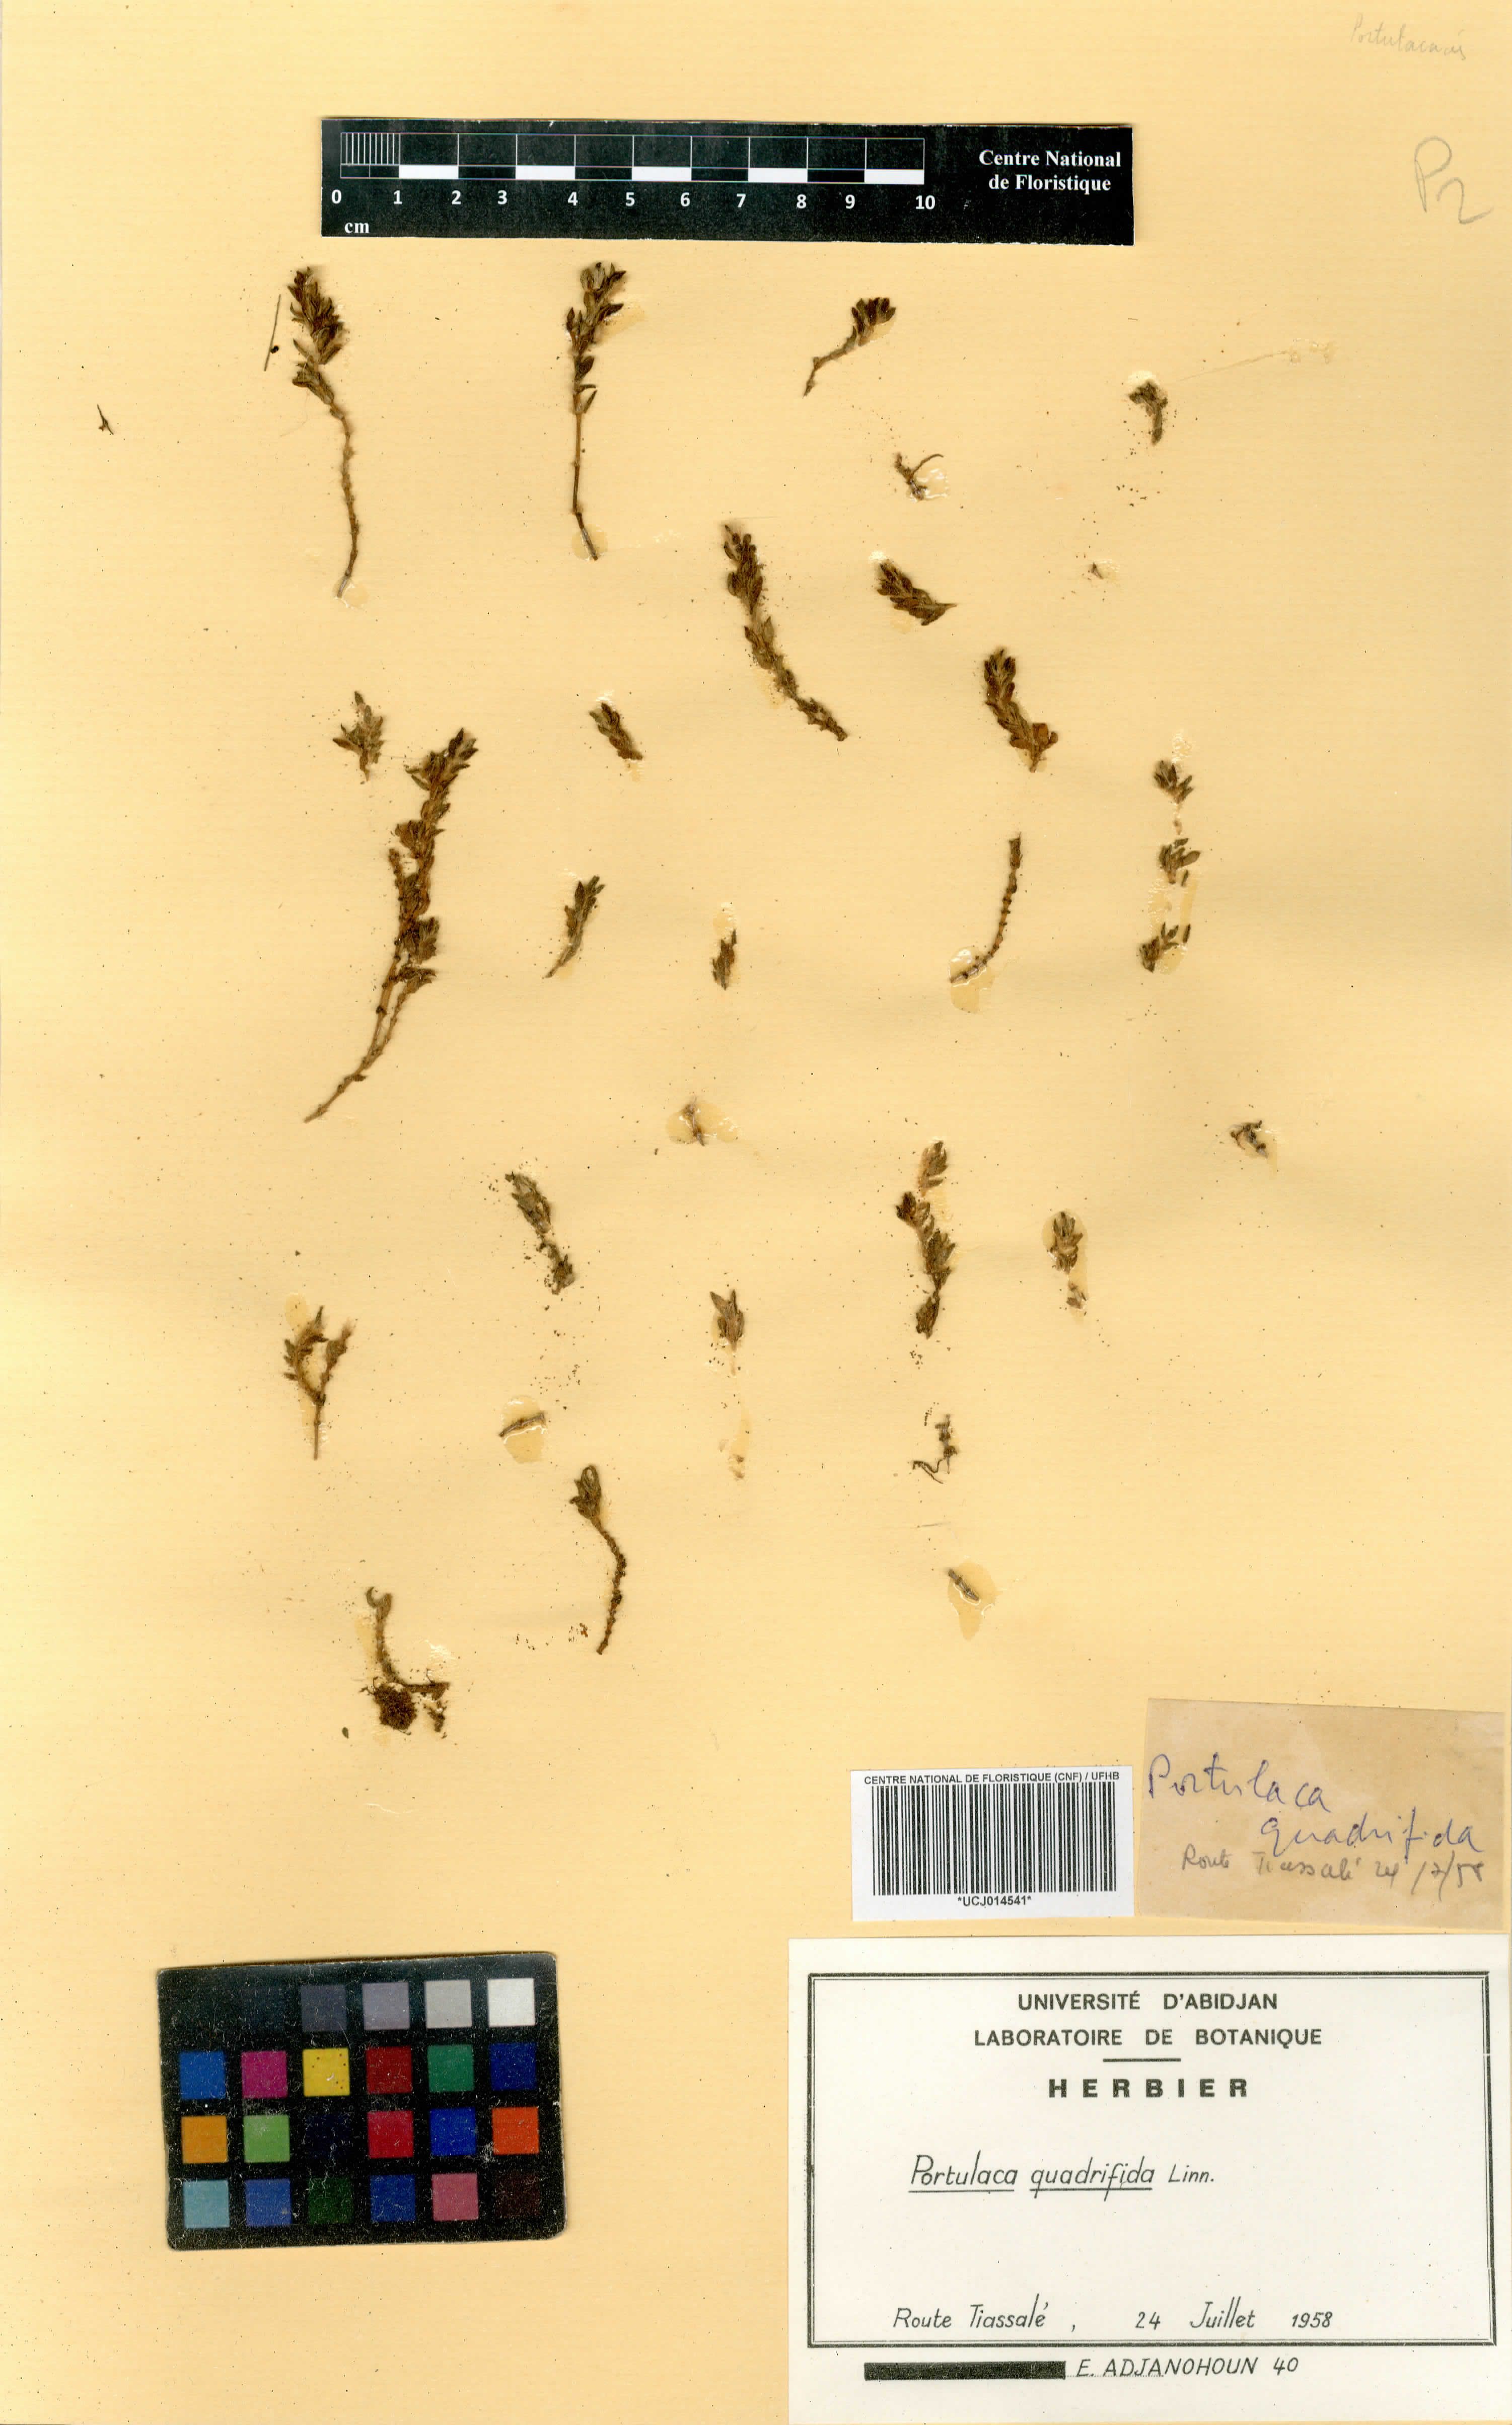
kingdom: Plantae
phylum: Tracheophyta
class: Magnoliopsida
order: Caryophyllales
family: Portulacaceae
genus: Portulaca
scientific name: Portulaca quadrifida
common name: Chickenweed
